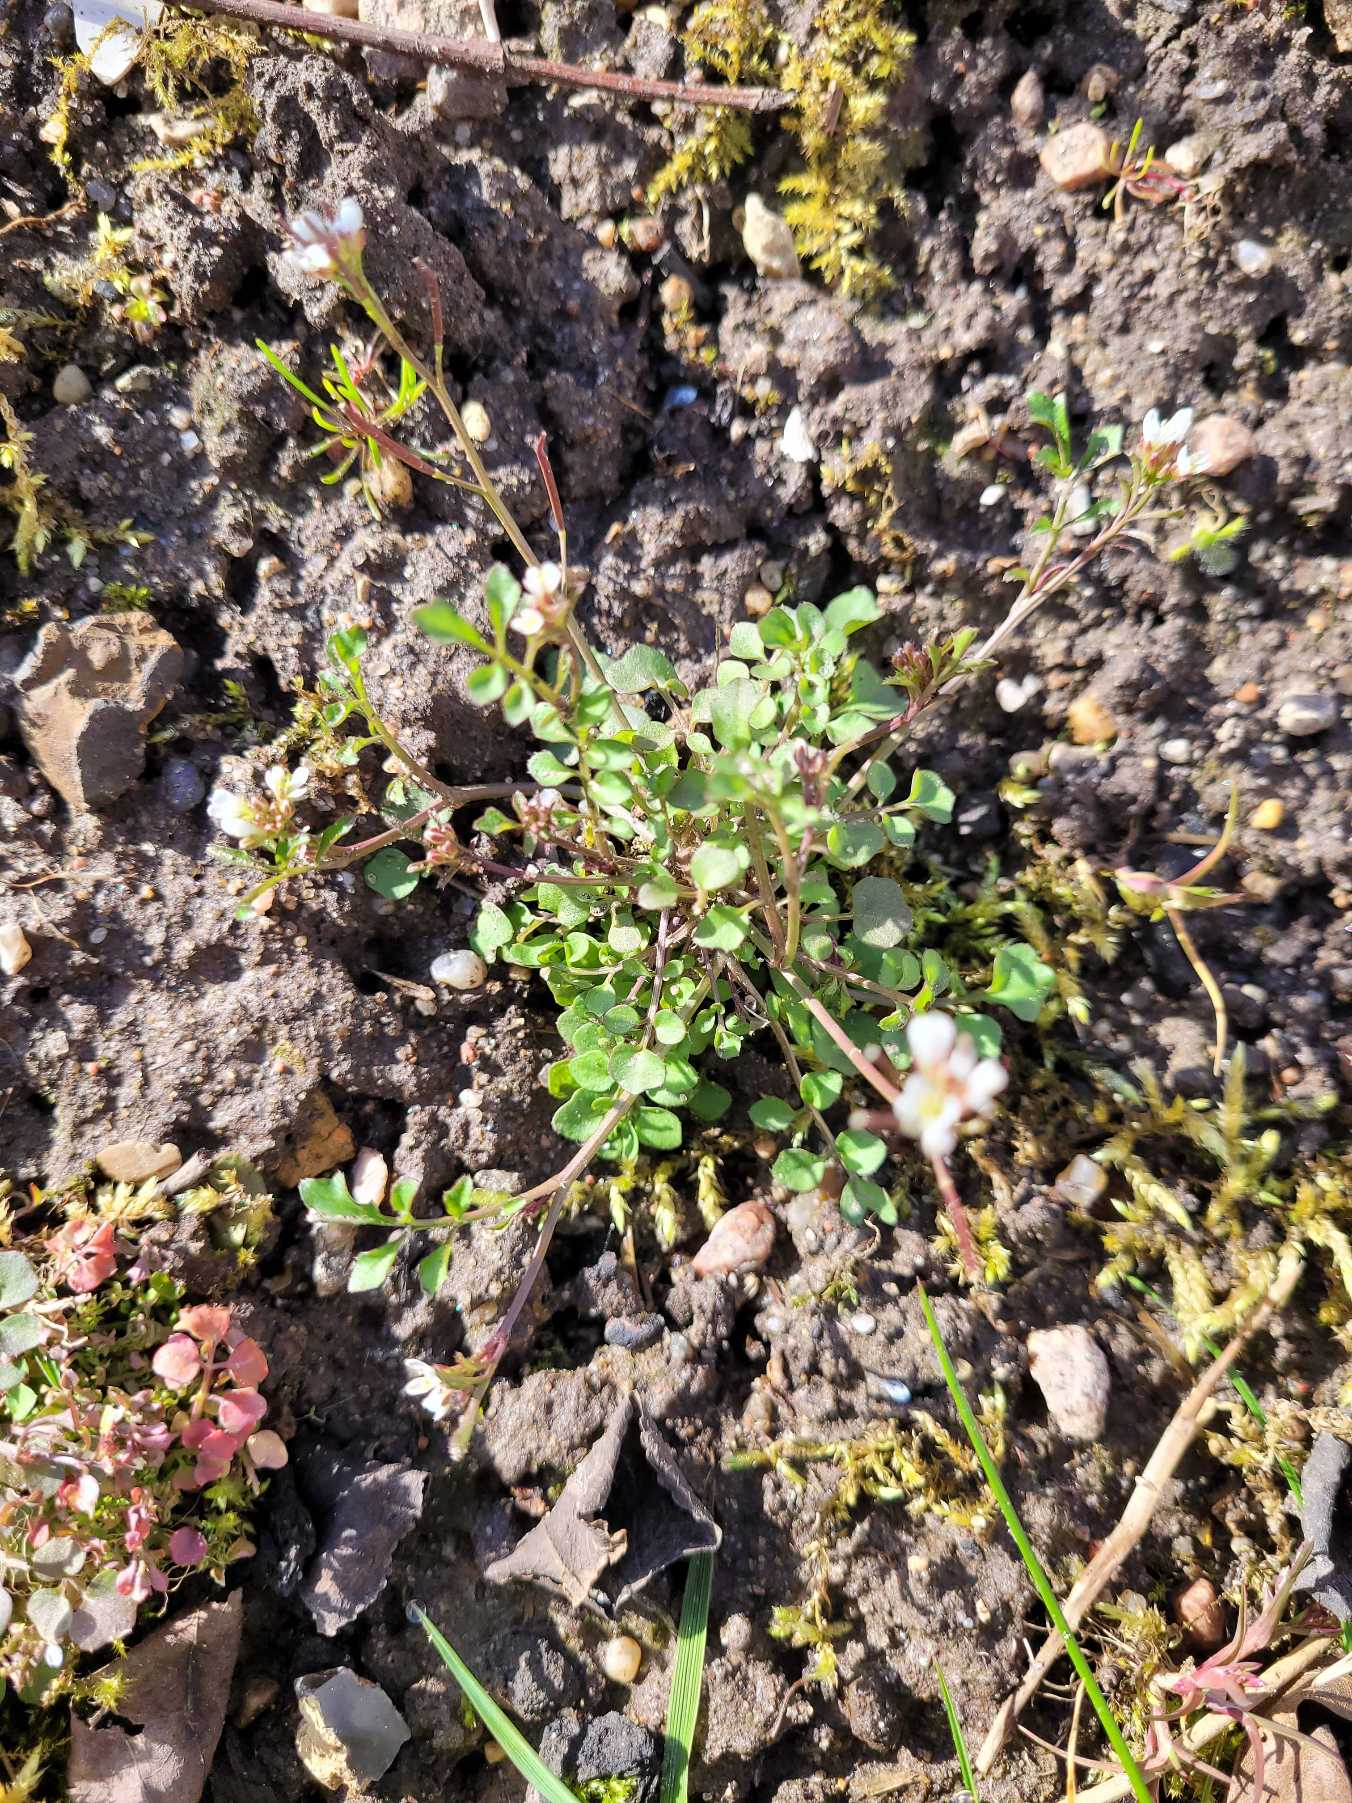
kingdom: Plantae
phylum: Tracheophyta
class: Magnoliopsida
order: Brassicales
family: Brassicaceae
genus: Cardamine
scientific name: Cardamine hirsuta
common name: Roset-springklap
